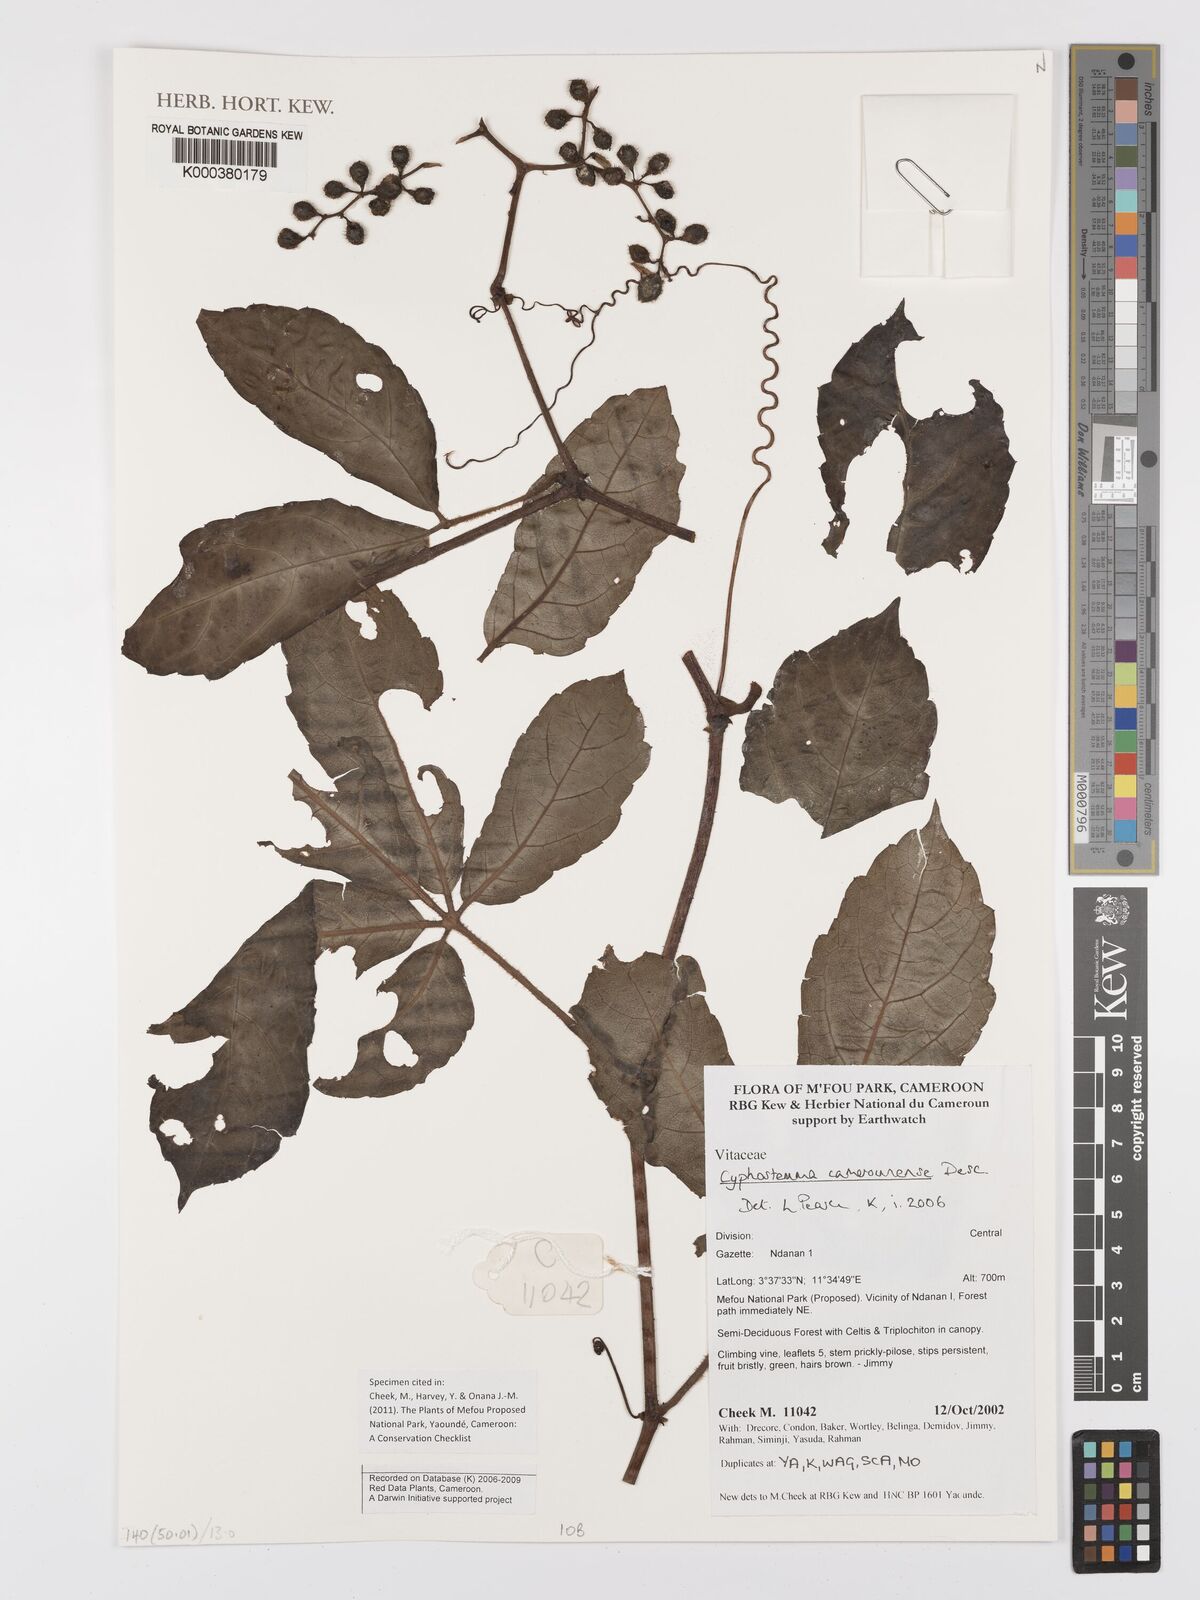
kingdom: Plantae
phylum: Tracheophyta
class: Magnoliopsida
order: Vitales
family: Vitaceae
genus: Cyphostemma
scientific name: Cyphostemma camerounense
